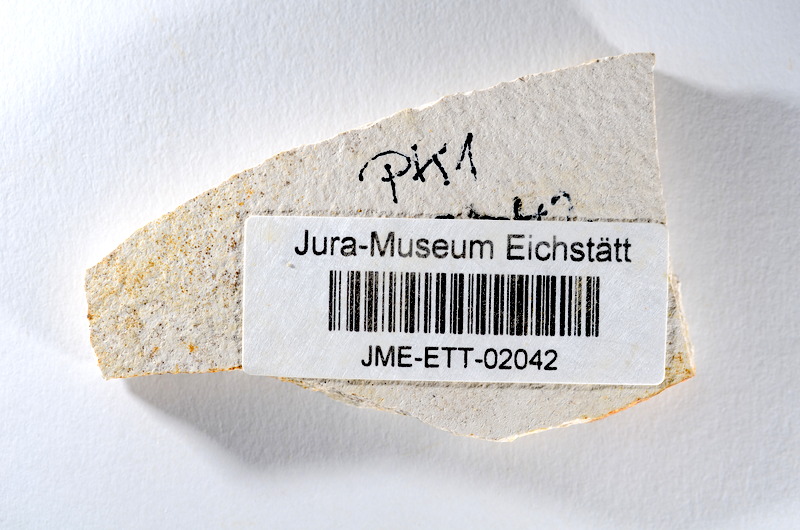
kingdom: Animalia
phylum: Chordata
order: Salmoniformes
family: Orthogonikleithridae
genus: Orthogonikleithrus
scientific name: Orthogonikleithrus hoelli
